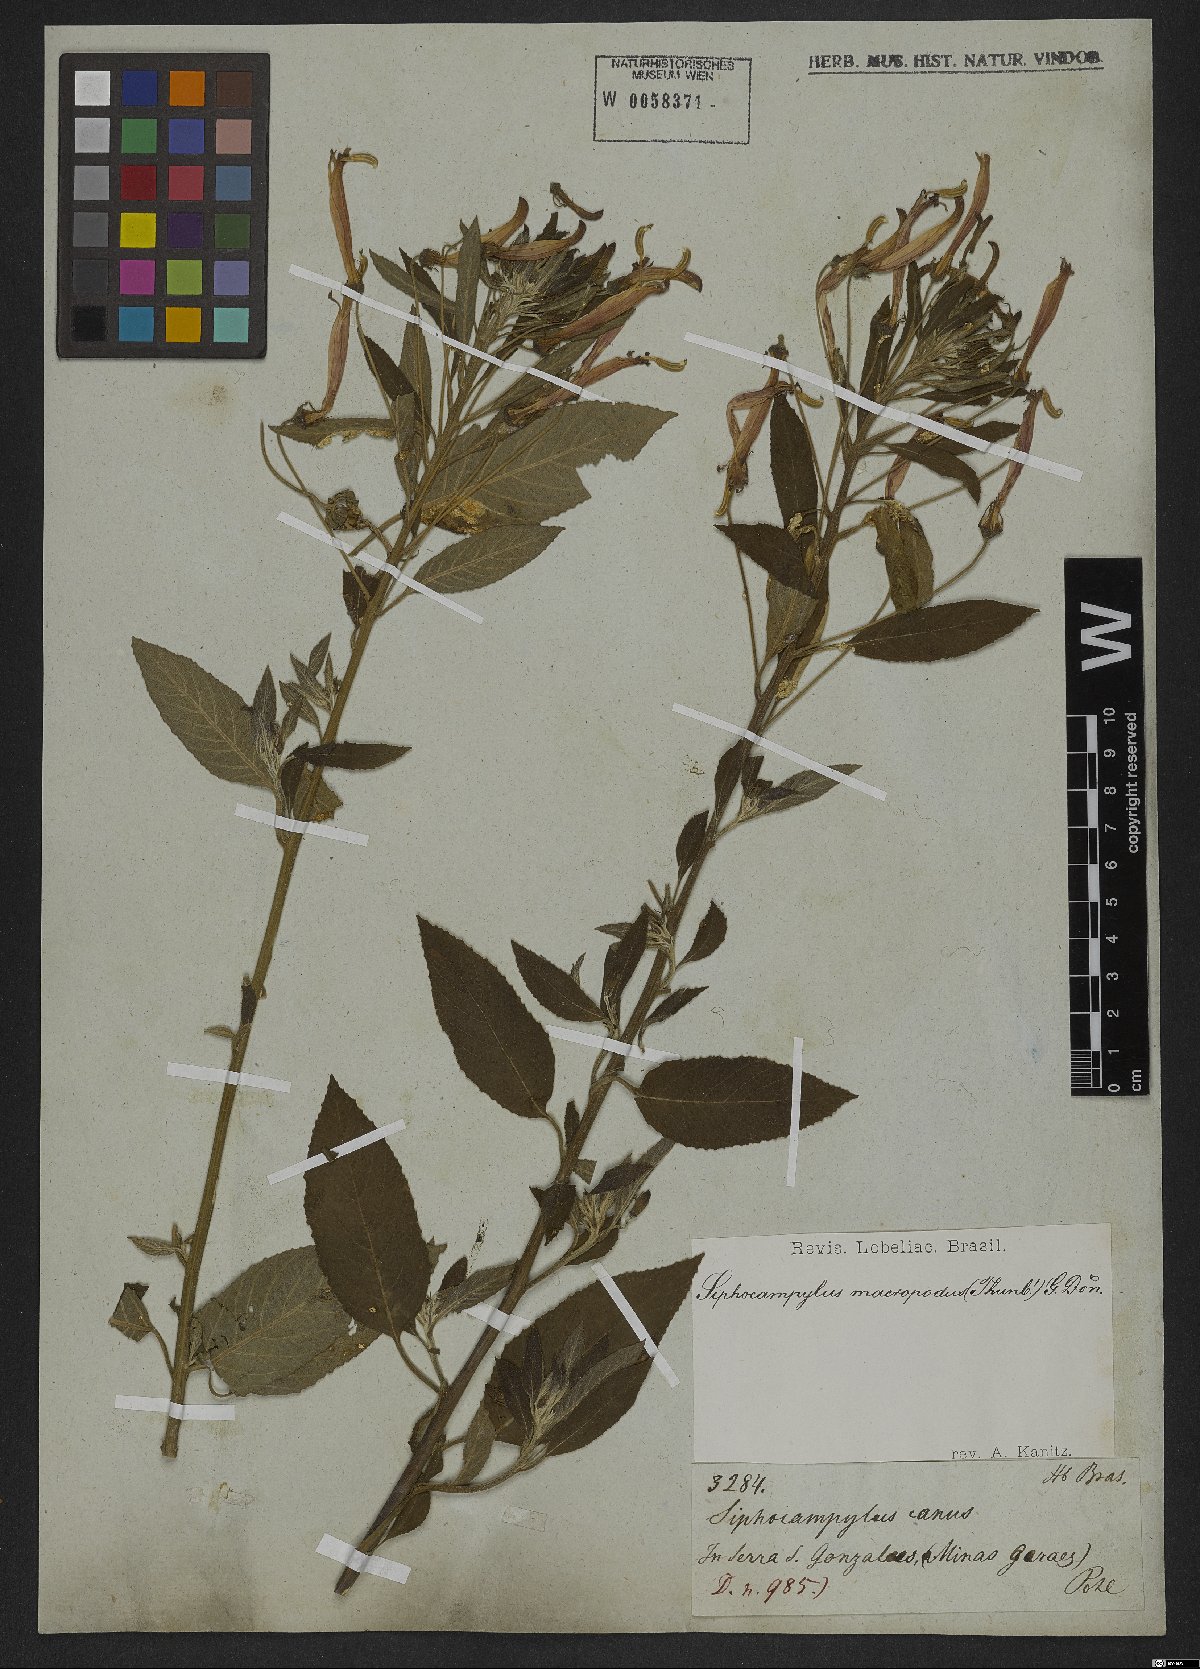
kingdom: Plantae
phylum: Tracheophyta
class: Magnoliopsida
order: Asterales
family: Campanulaceae
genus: Siphocampylus
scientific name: Siphocampylus macropodus
